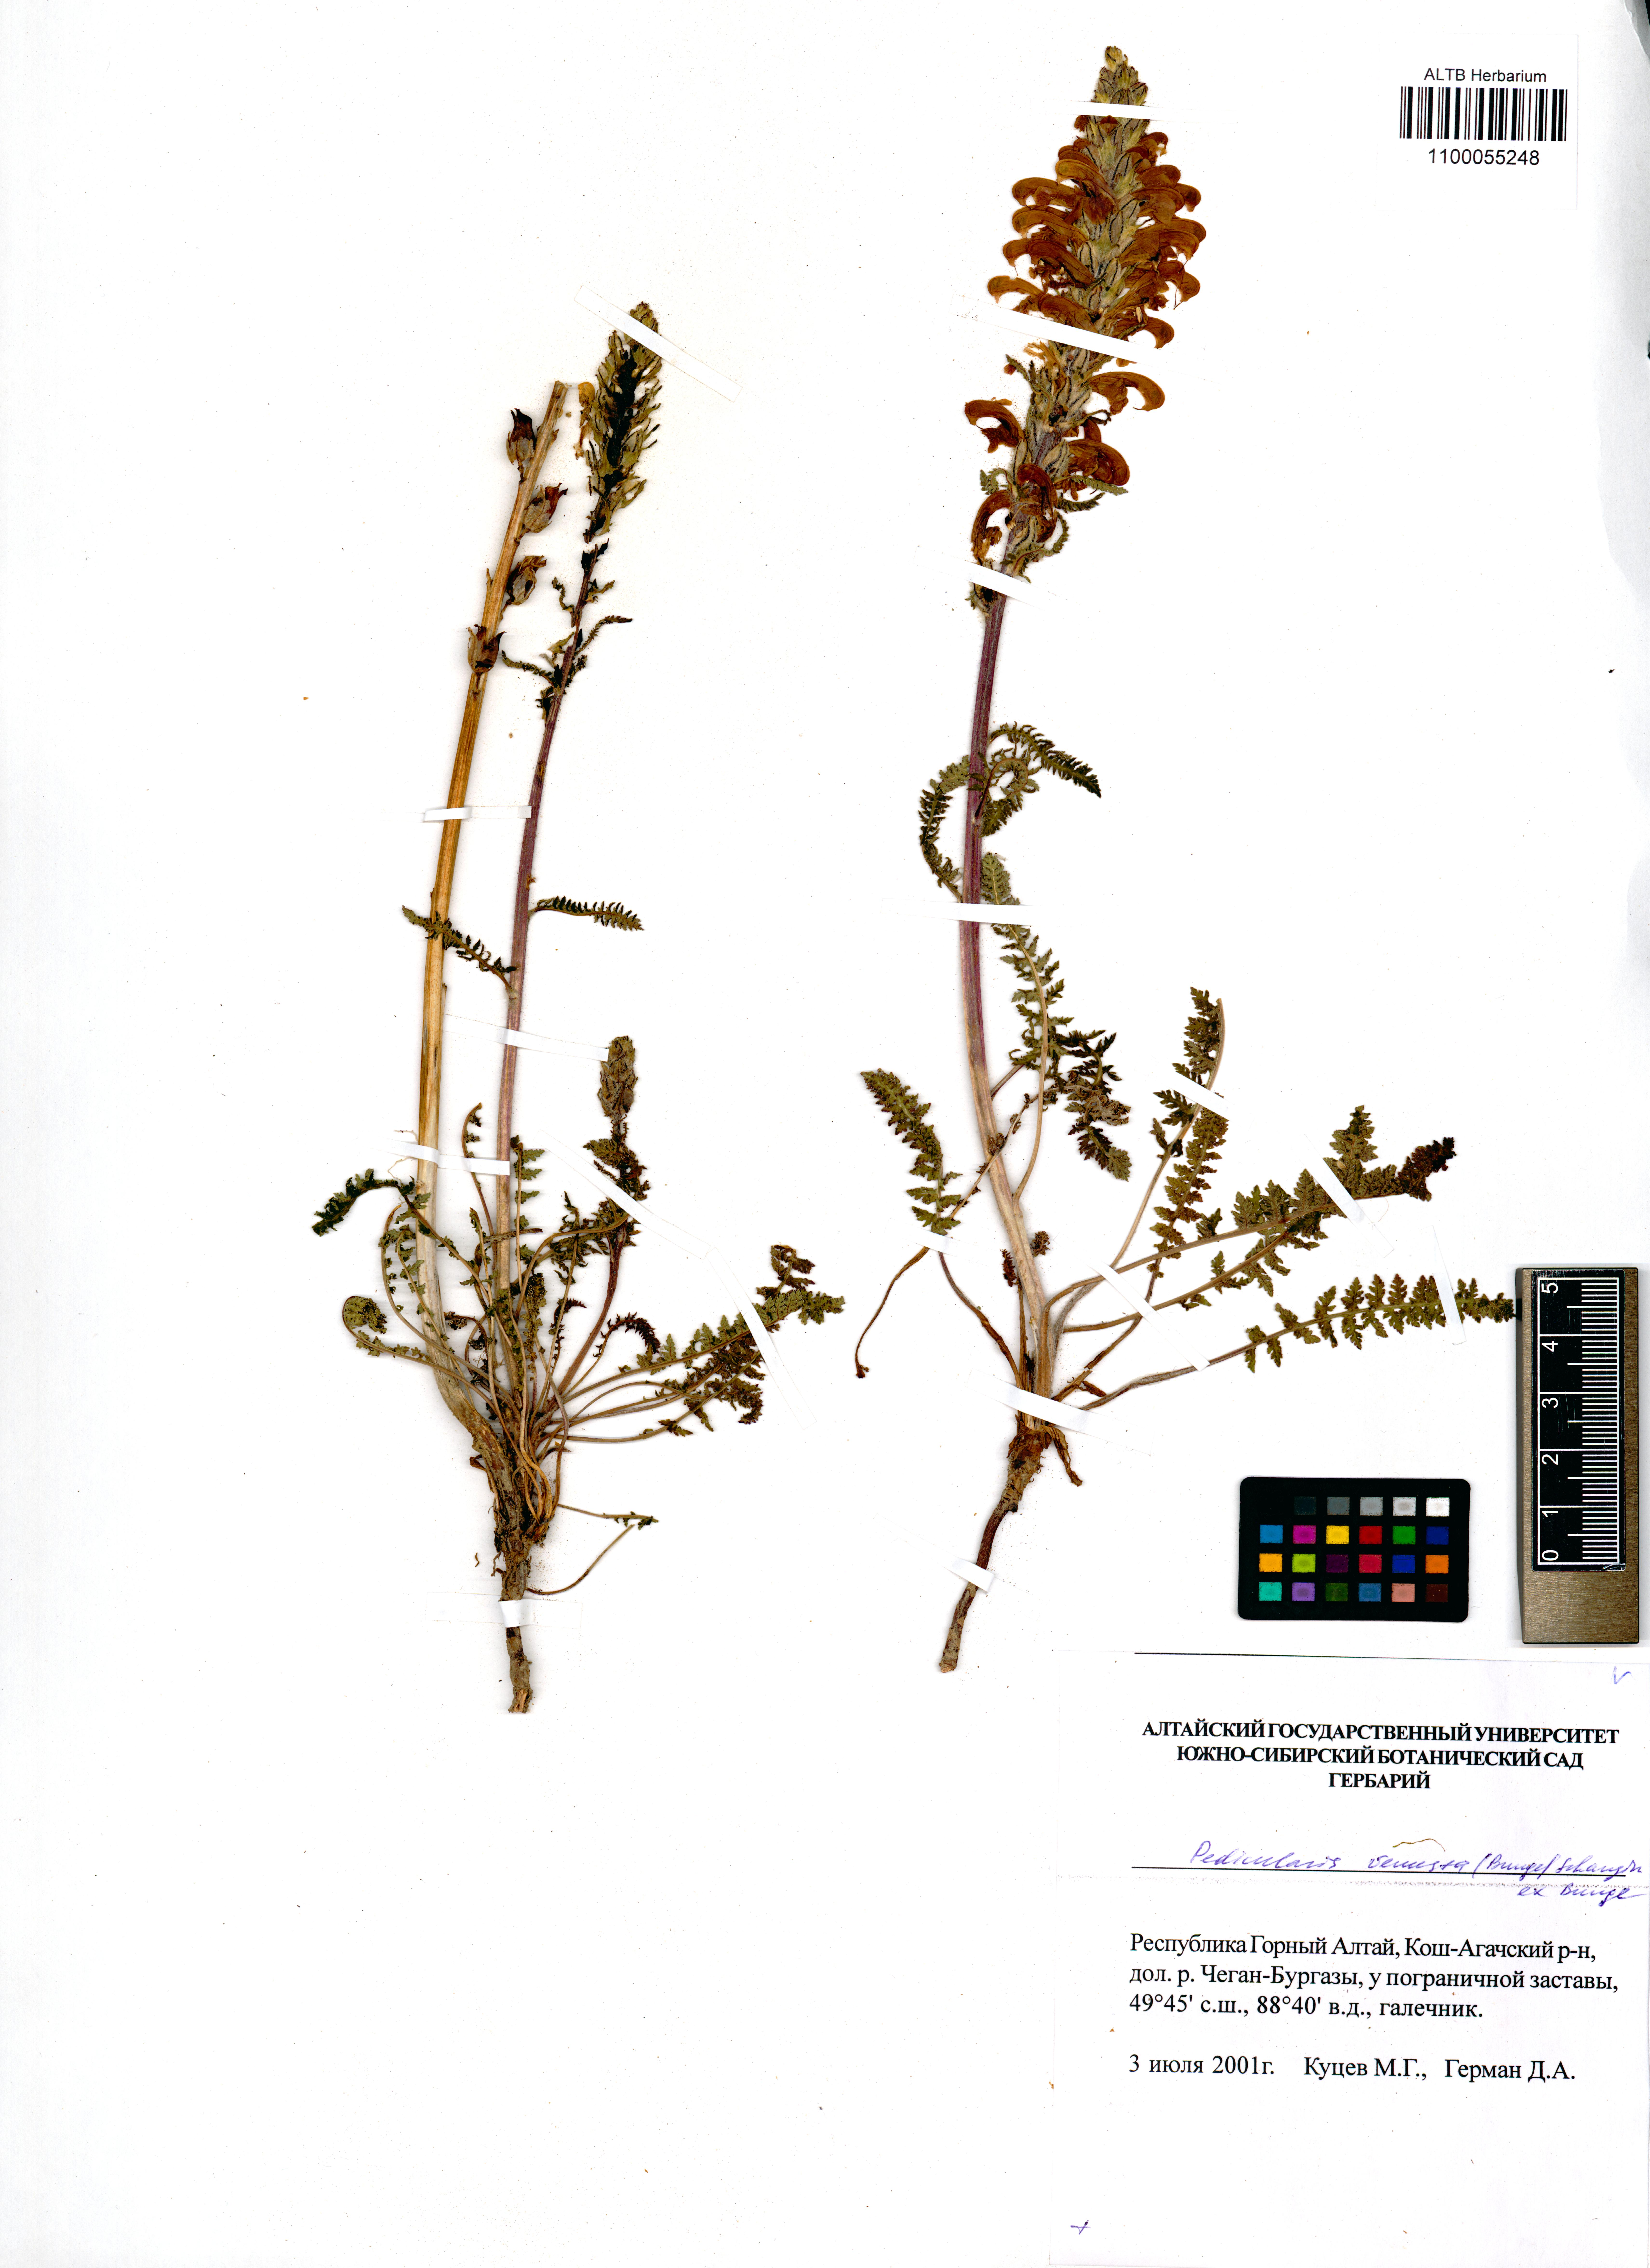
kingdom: Plantae
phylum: Tracheophyta
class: Magnoliopsida
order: Lamiales
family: Orobanchaceae
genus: Pedicularis
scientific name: Pedicularis venusta
